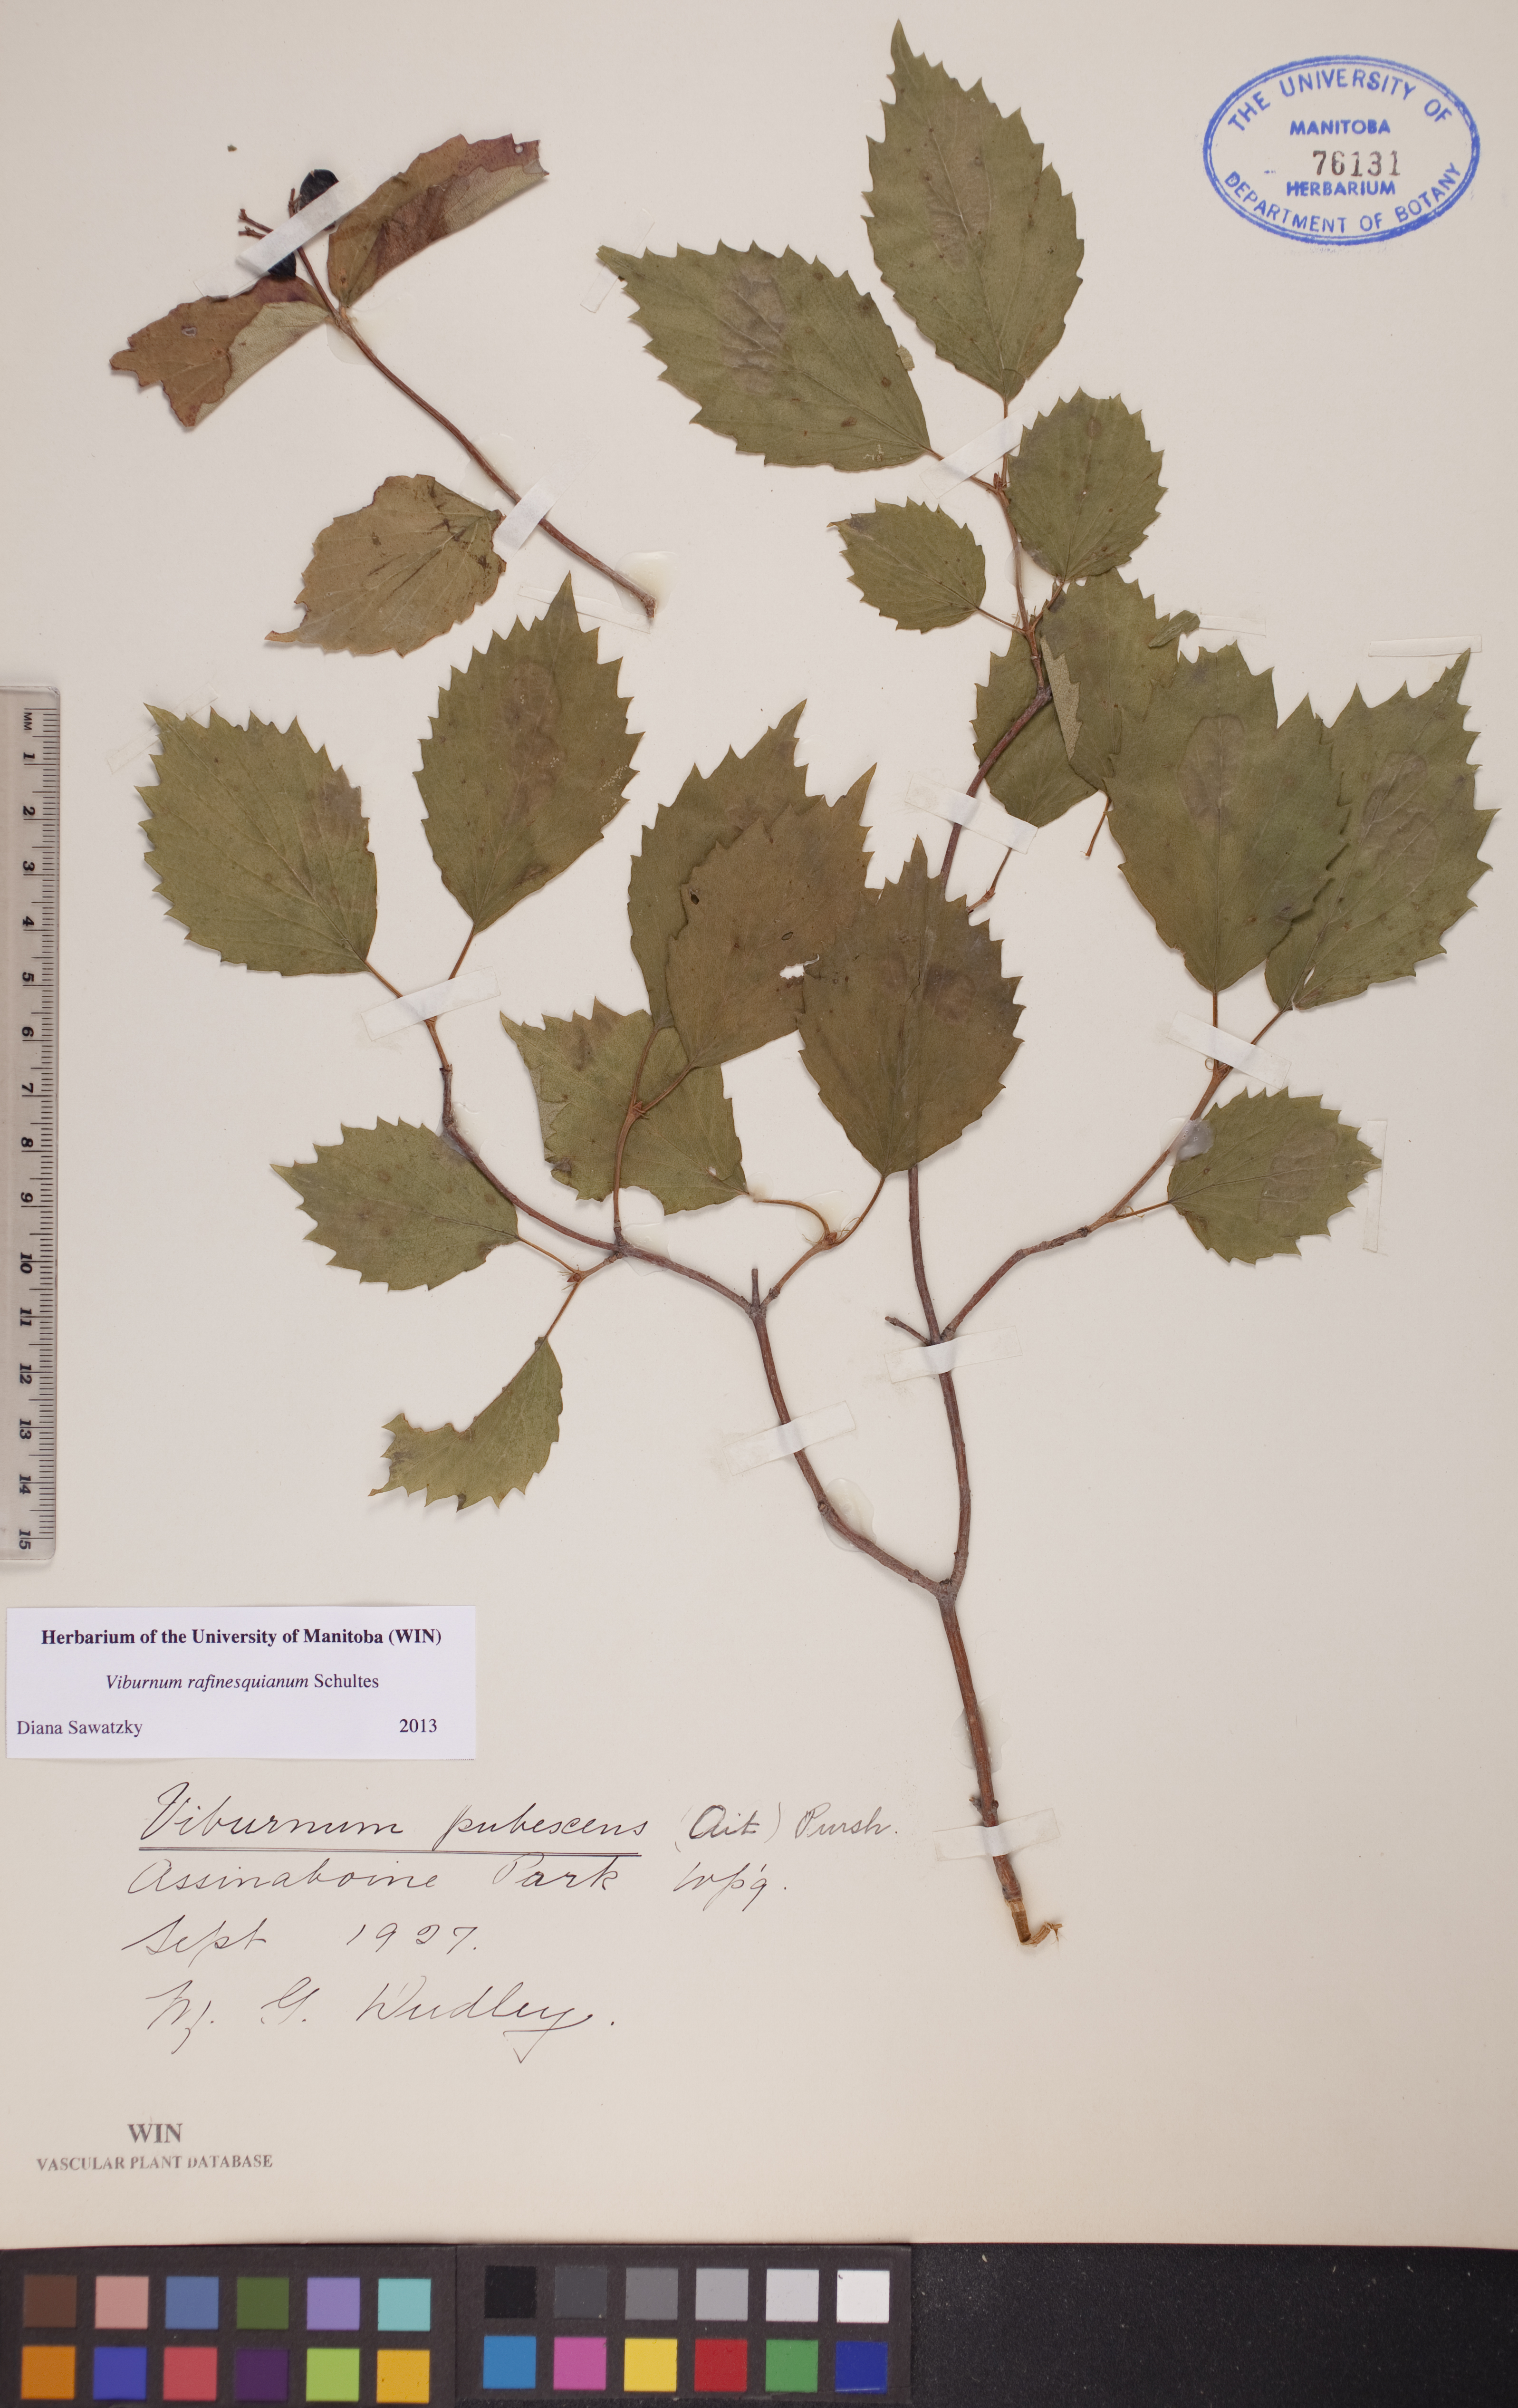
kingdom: Plantae
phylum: Tracheophyta
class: Magnoliopsida
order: Dipsacales
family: Viburnaceae
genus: Viburnum
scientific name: Viburnum rafinesquianum
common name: Downy arrow-wood
